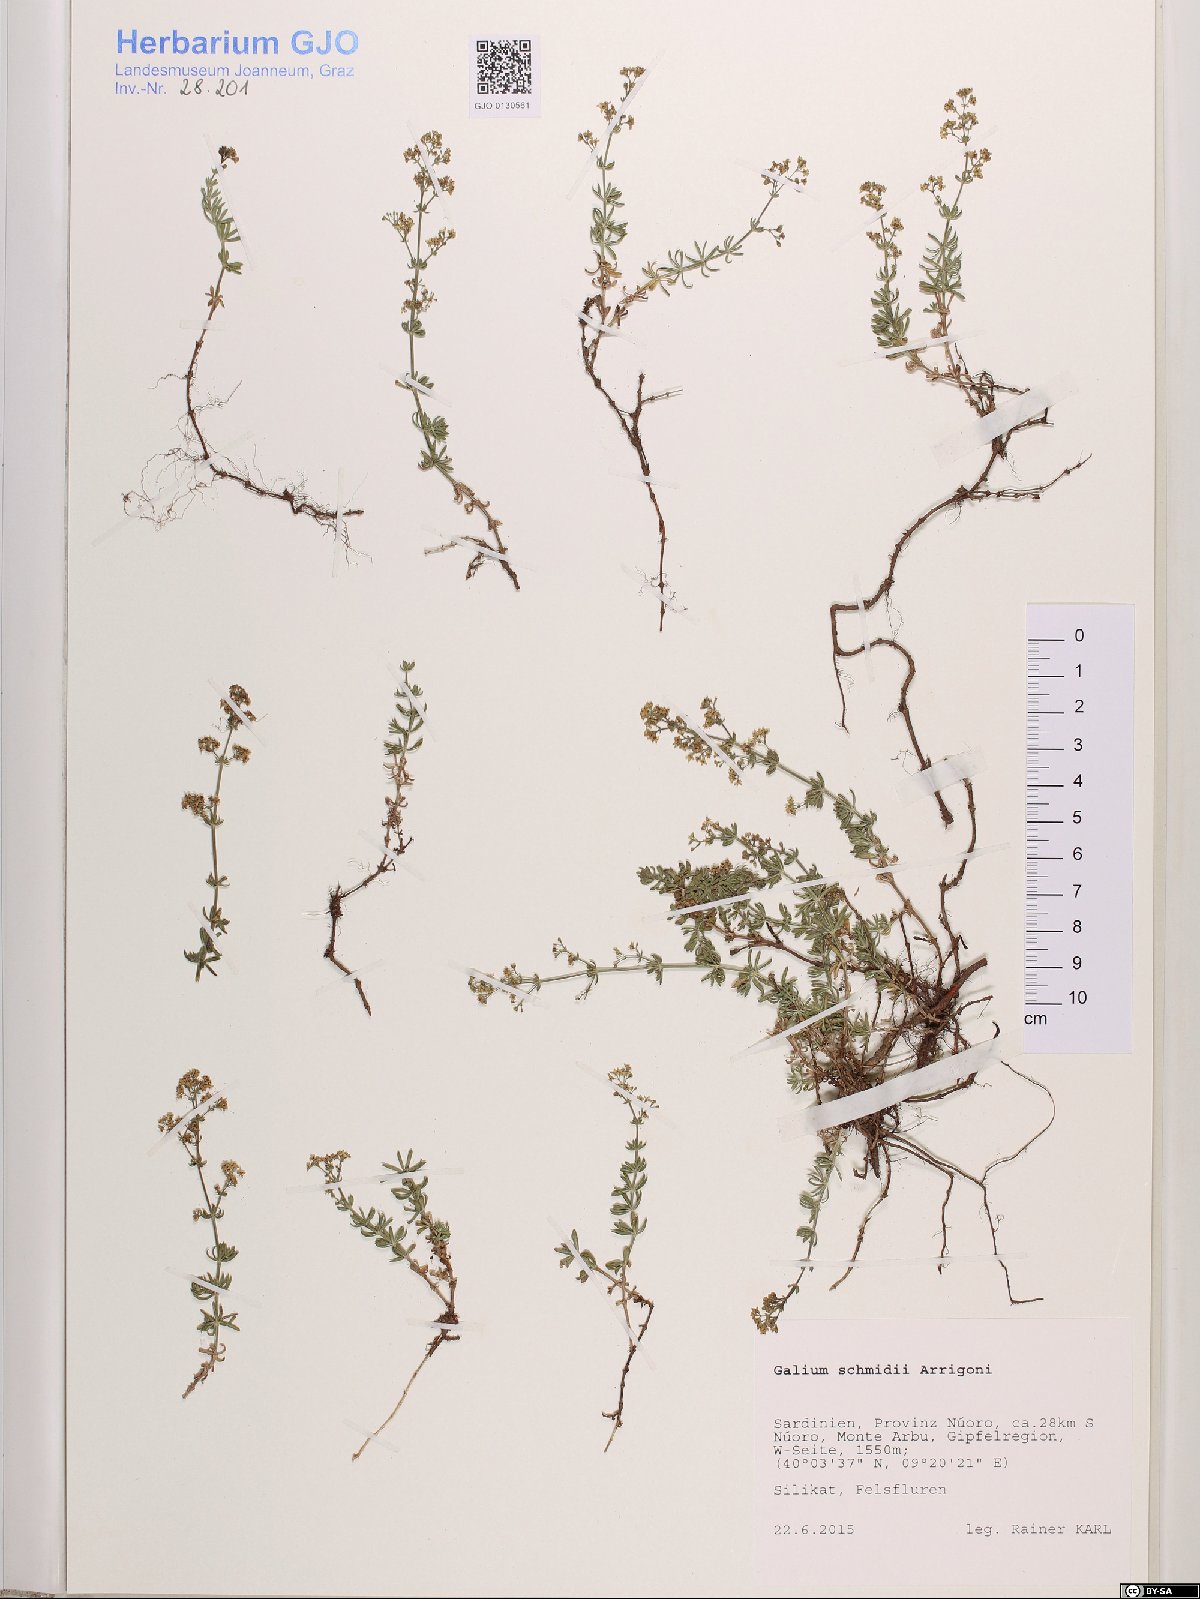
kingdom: Plantae
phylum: Tracheophyta
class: Magnoliopsida
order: Gentianales
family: Rubiaceae
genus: Galium
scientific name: Galium schmidii
